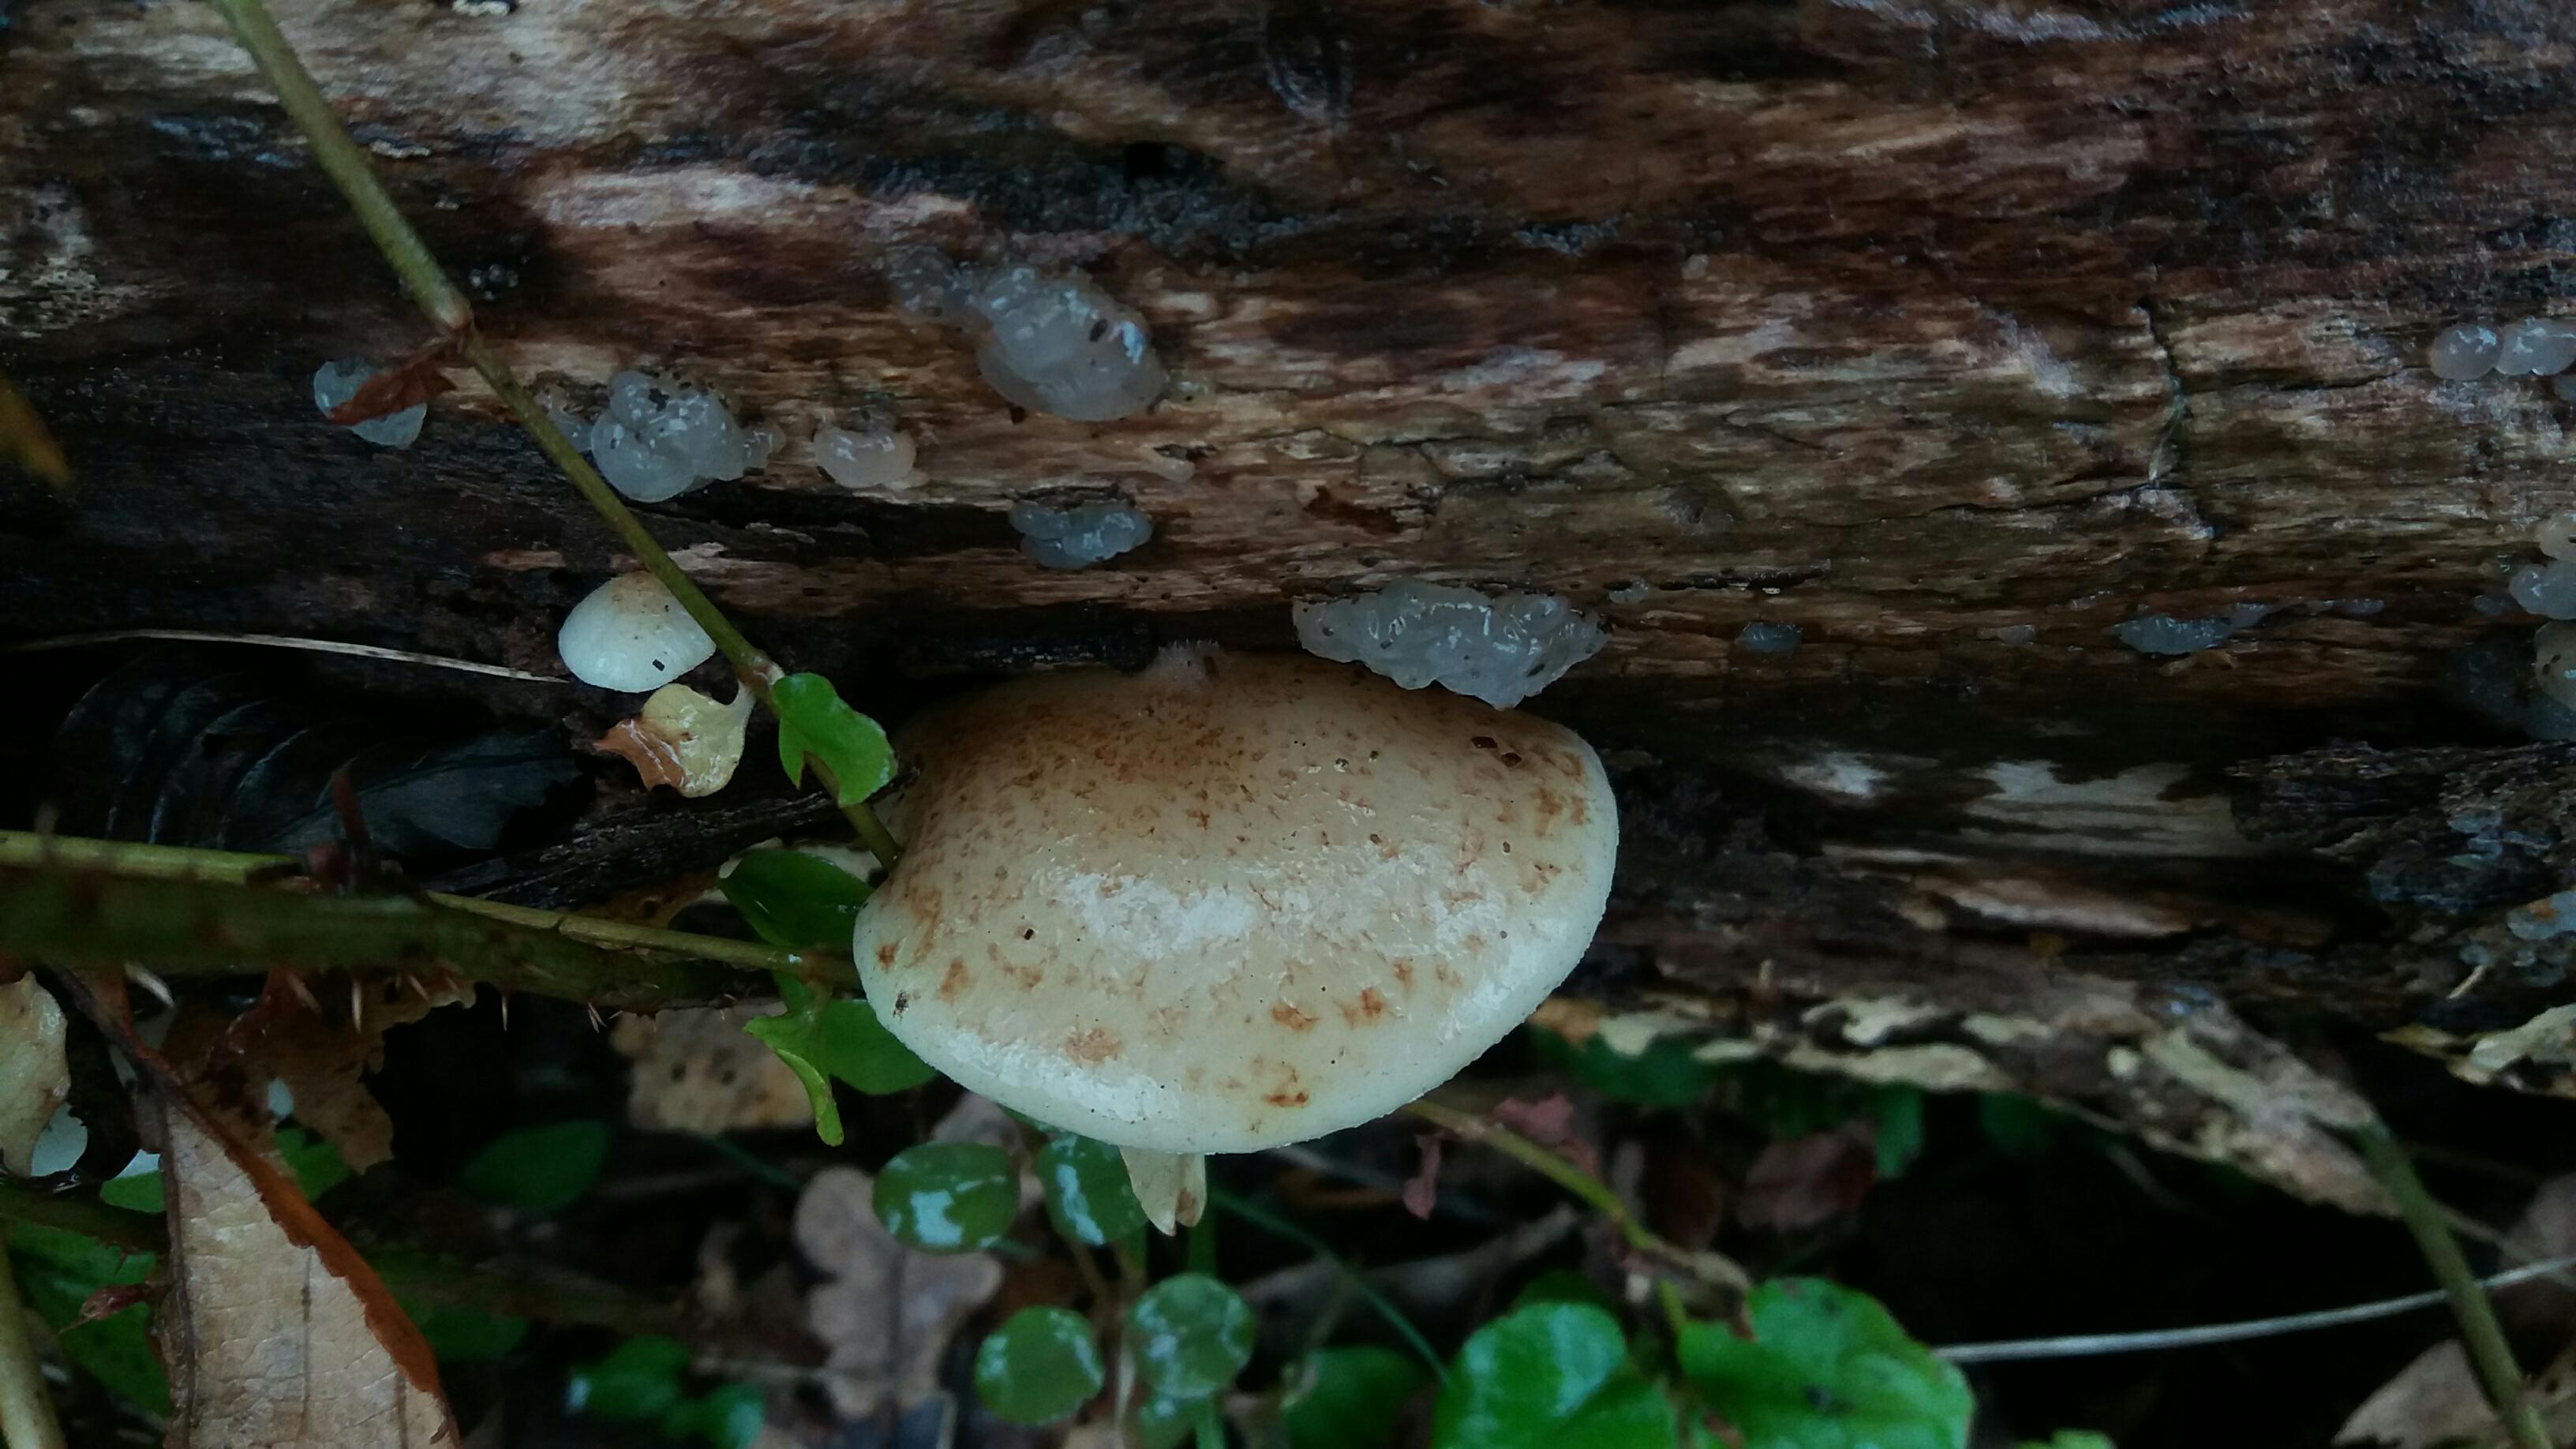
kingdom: Fungi
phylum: Basidiomycota
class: Agaricomycetes
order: Agaricales
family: Crepidotaceae
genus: Crepidotus
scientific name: Crepidotus calolepis
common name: småskællet muslingesvamp
